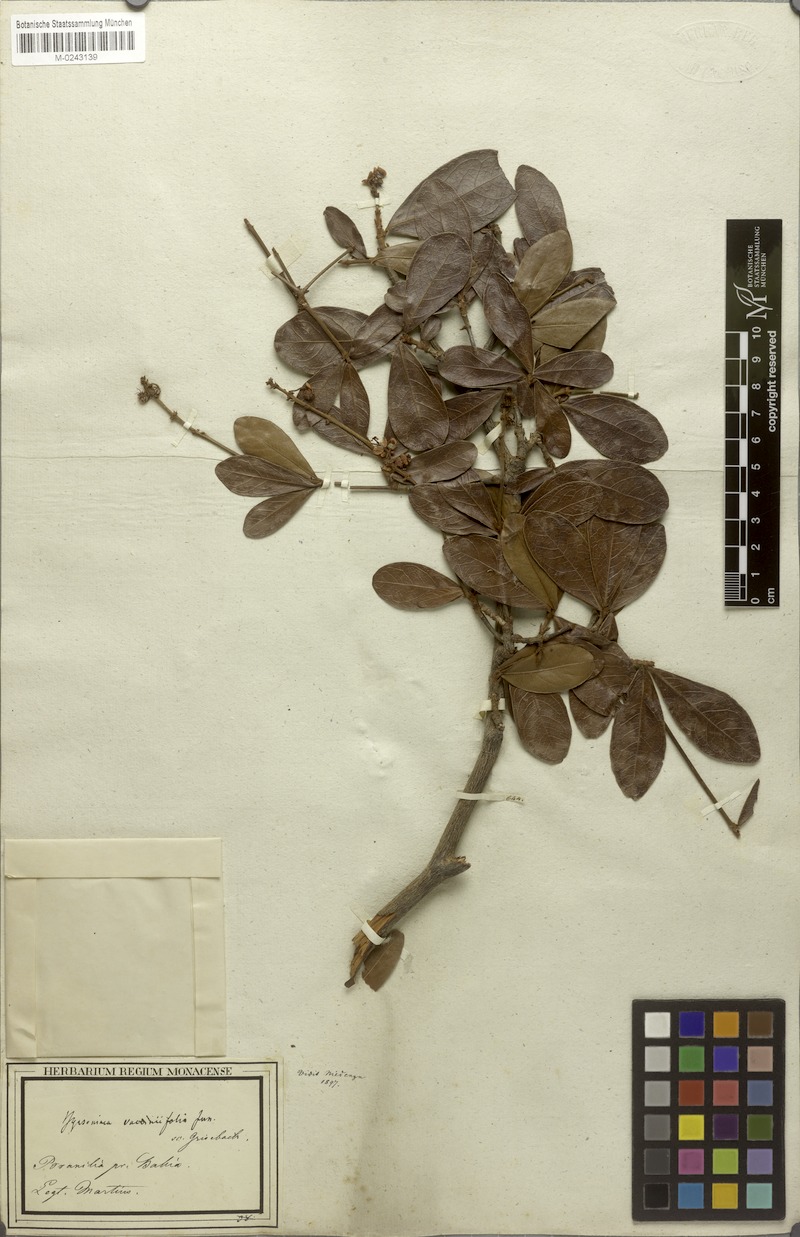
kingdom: Plantae
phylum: Tracheophyta
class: Magnoliopsida
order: Malpighiales
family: Malpighiaceae
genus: Byrsonima
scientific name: Byrsonima vacciniifolia
